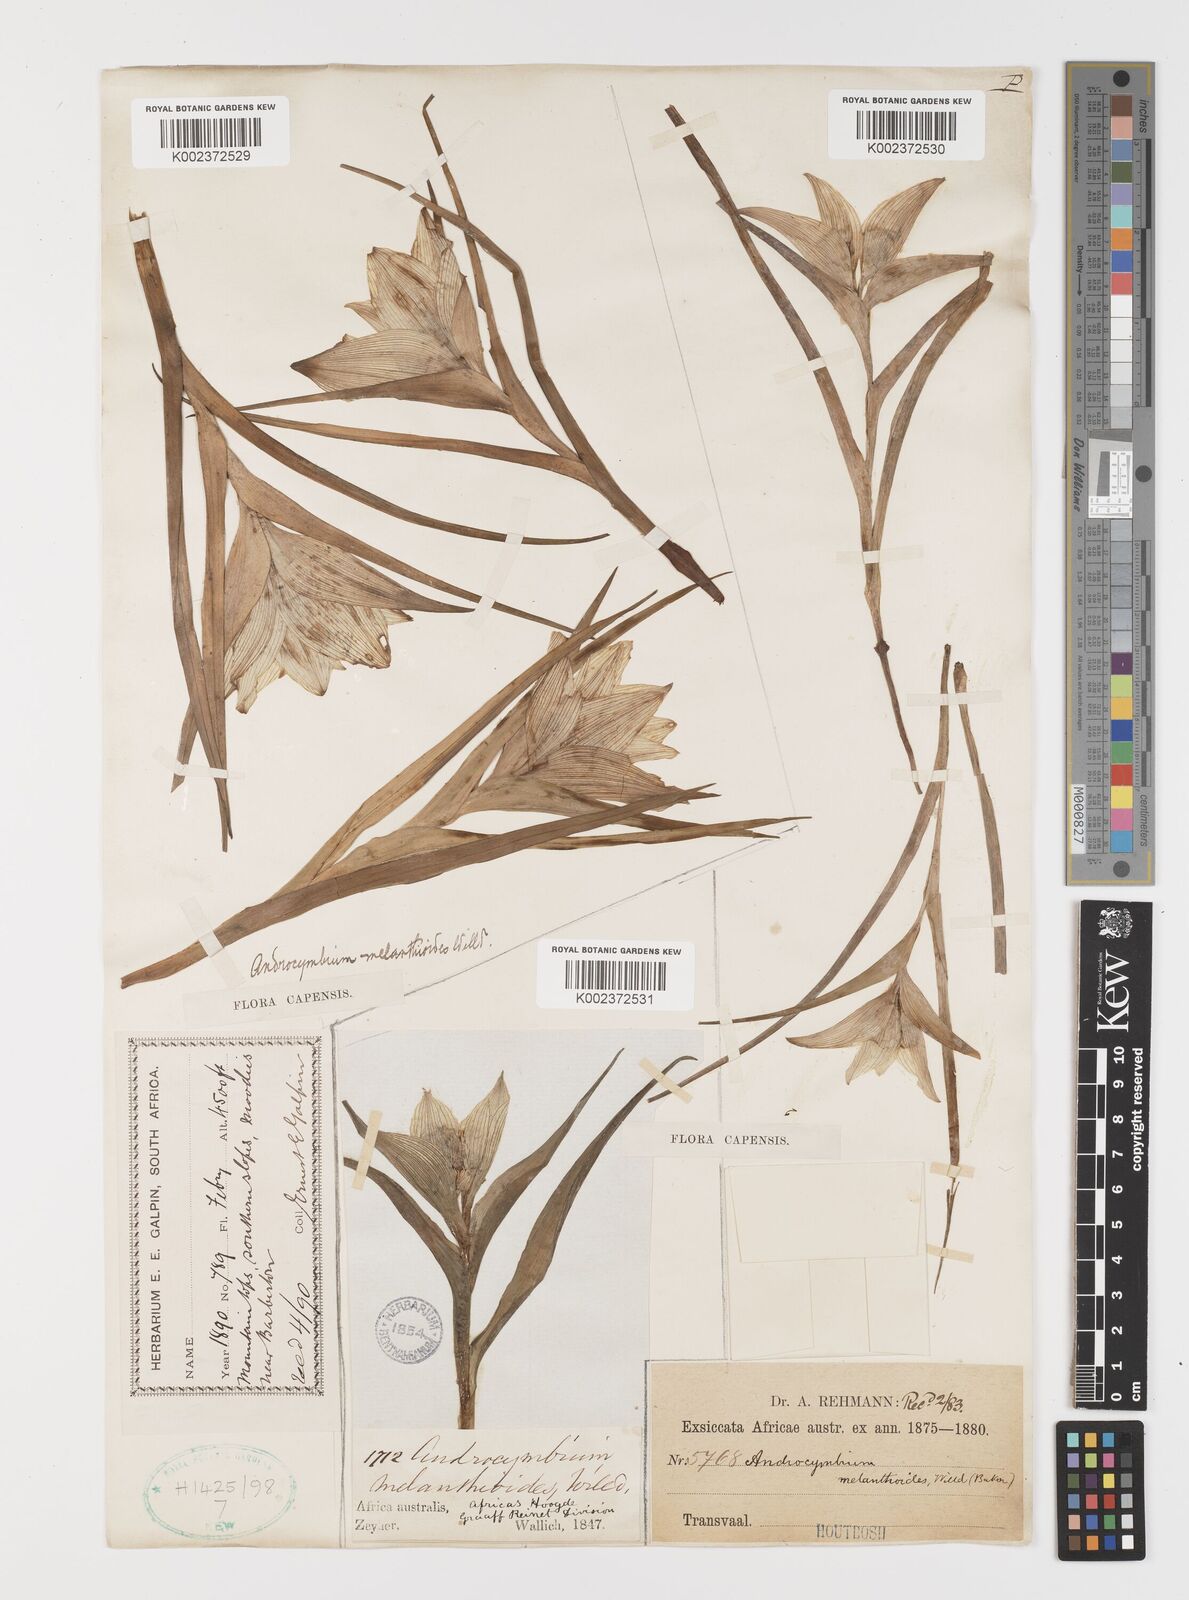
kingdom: Plantae
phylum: Tracheophyta
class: Liliopsida
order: Liliales
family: Colchicaceae
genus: Colchicum
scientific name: Colchicum melanthioides
